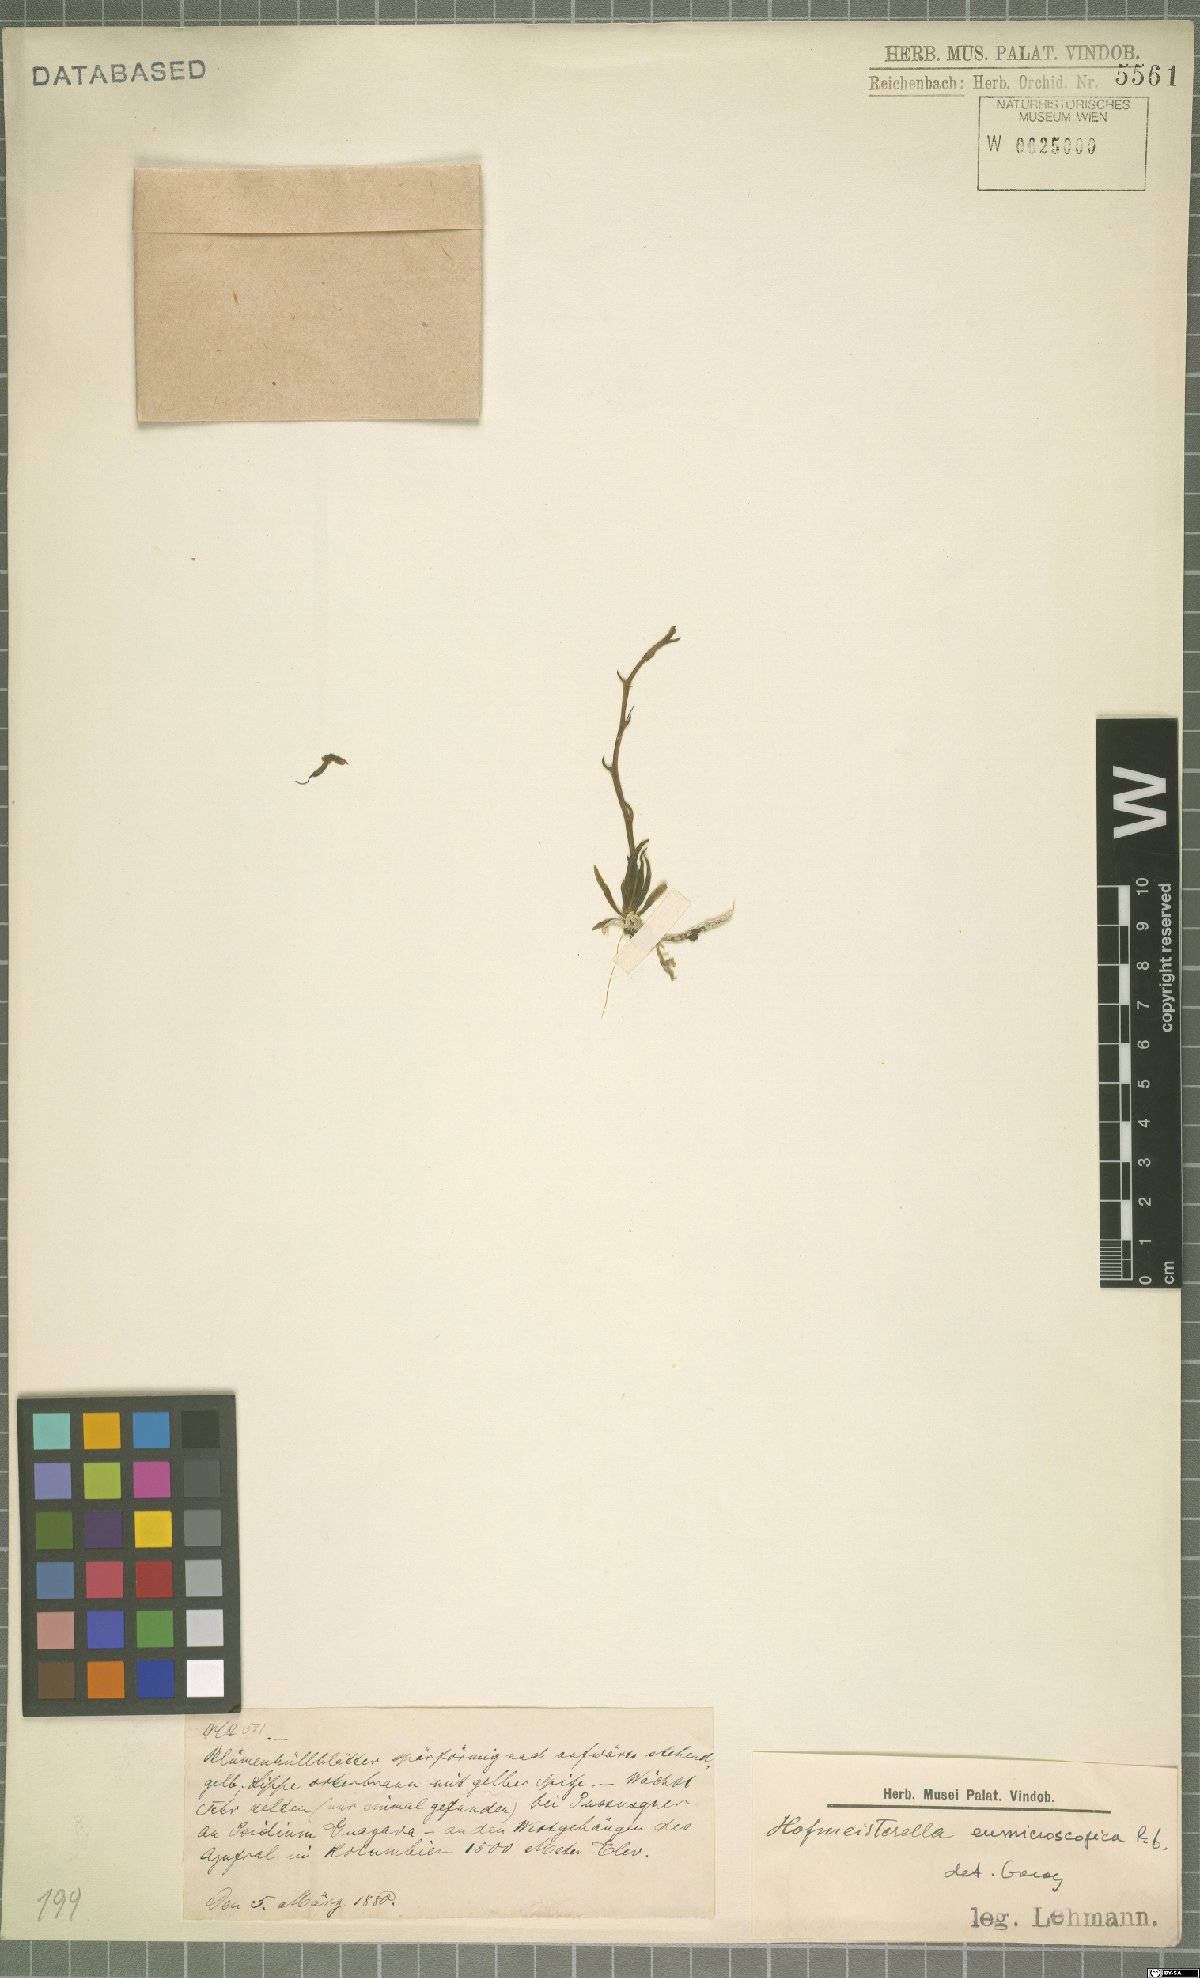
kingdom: Plantae
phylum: Tracheophyta
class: Liliopsida
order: Asparagales
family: Orchidaceae
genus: Hofmeisterella
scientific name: Hofmeisterella eumicroscopica
